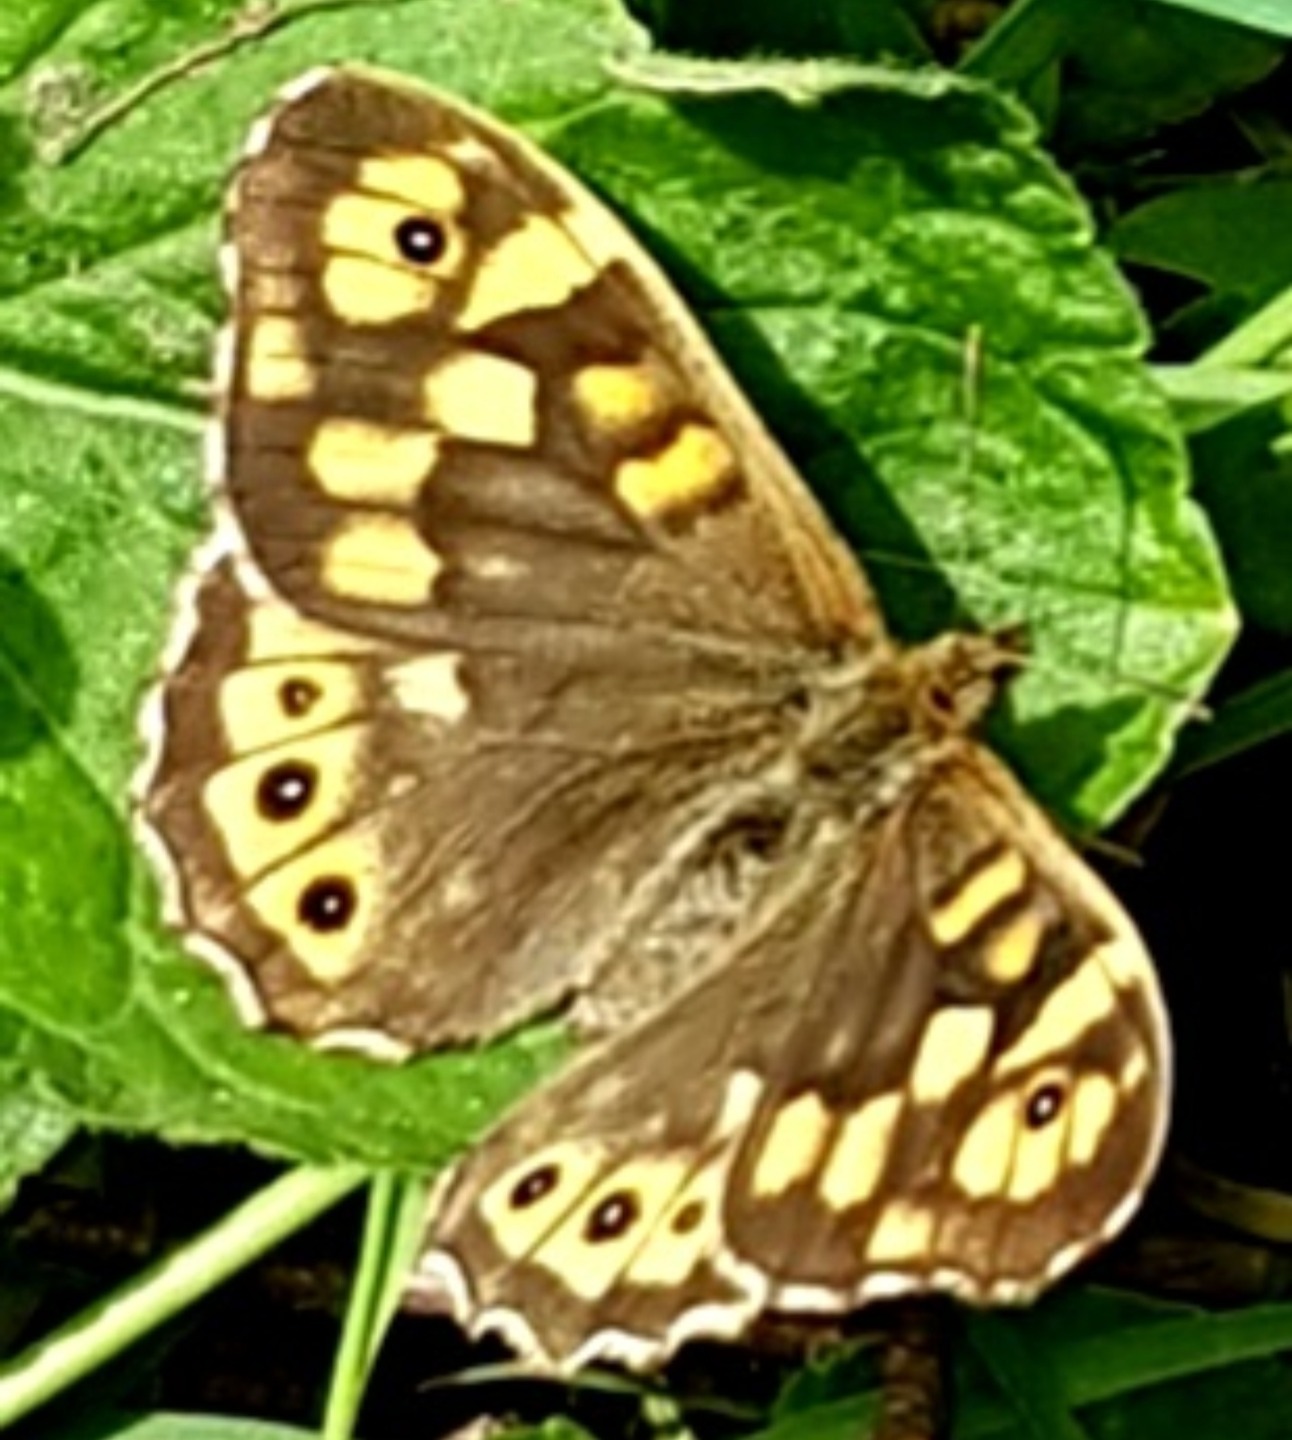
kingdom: Animalia
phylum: Arthropoda
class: Insecta
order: Lepidoptera
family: Nymphalidae
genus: Pararge
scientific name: Pararge aegeria
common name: Skovrandøje
